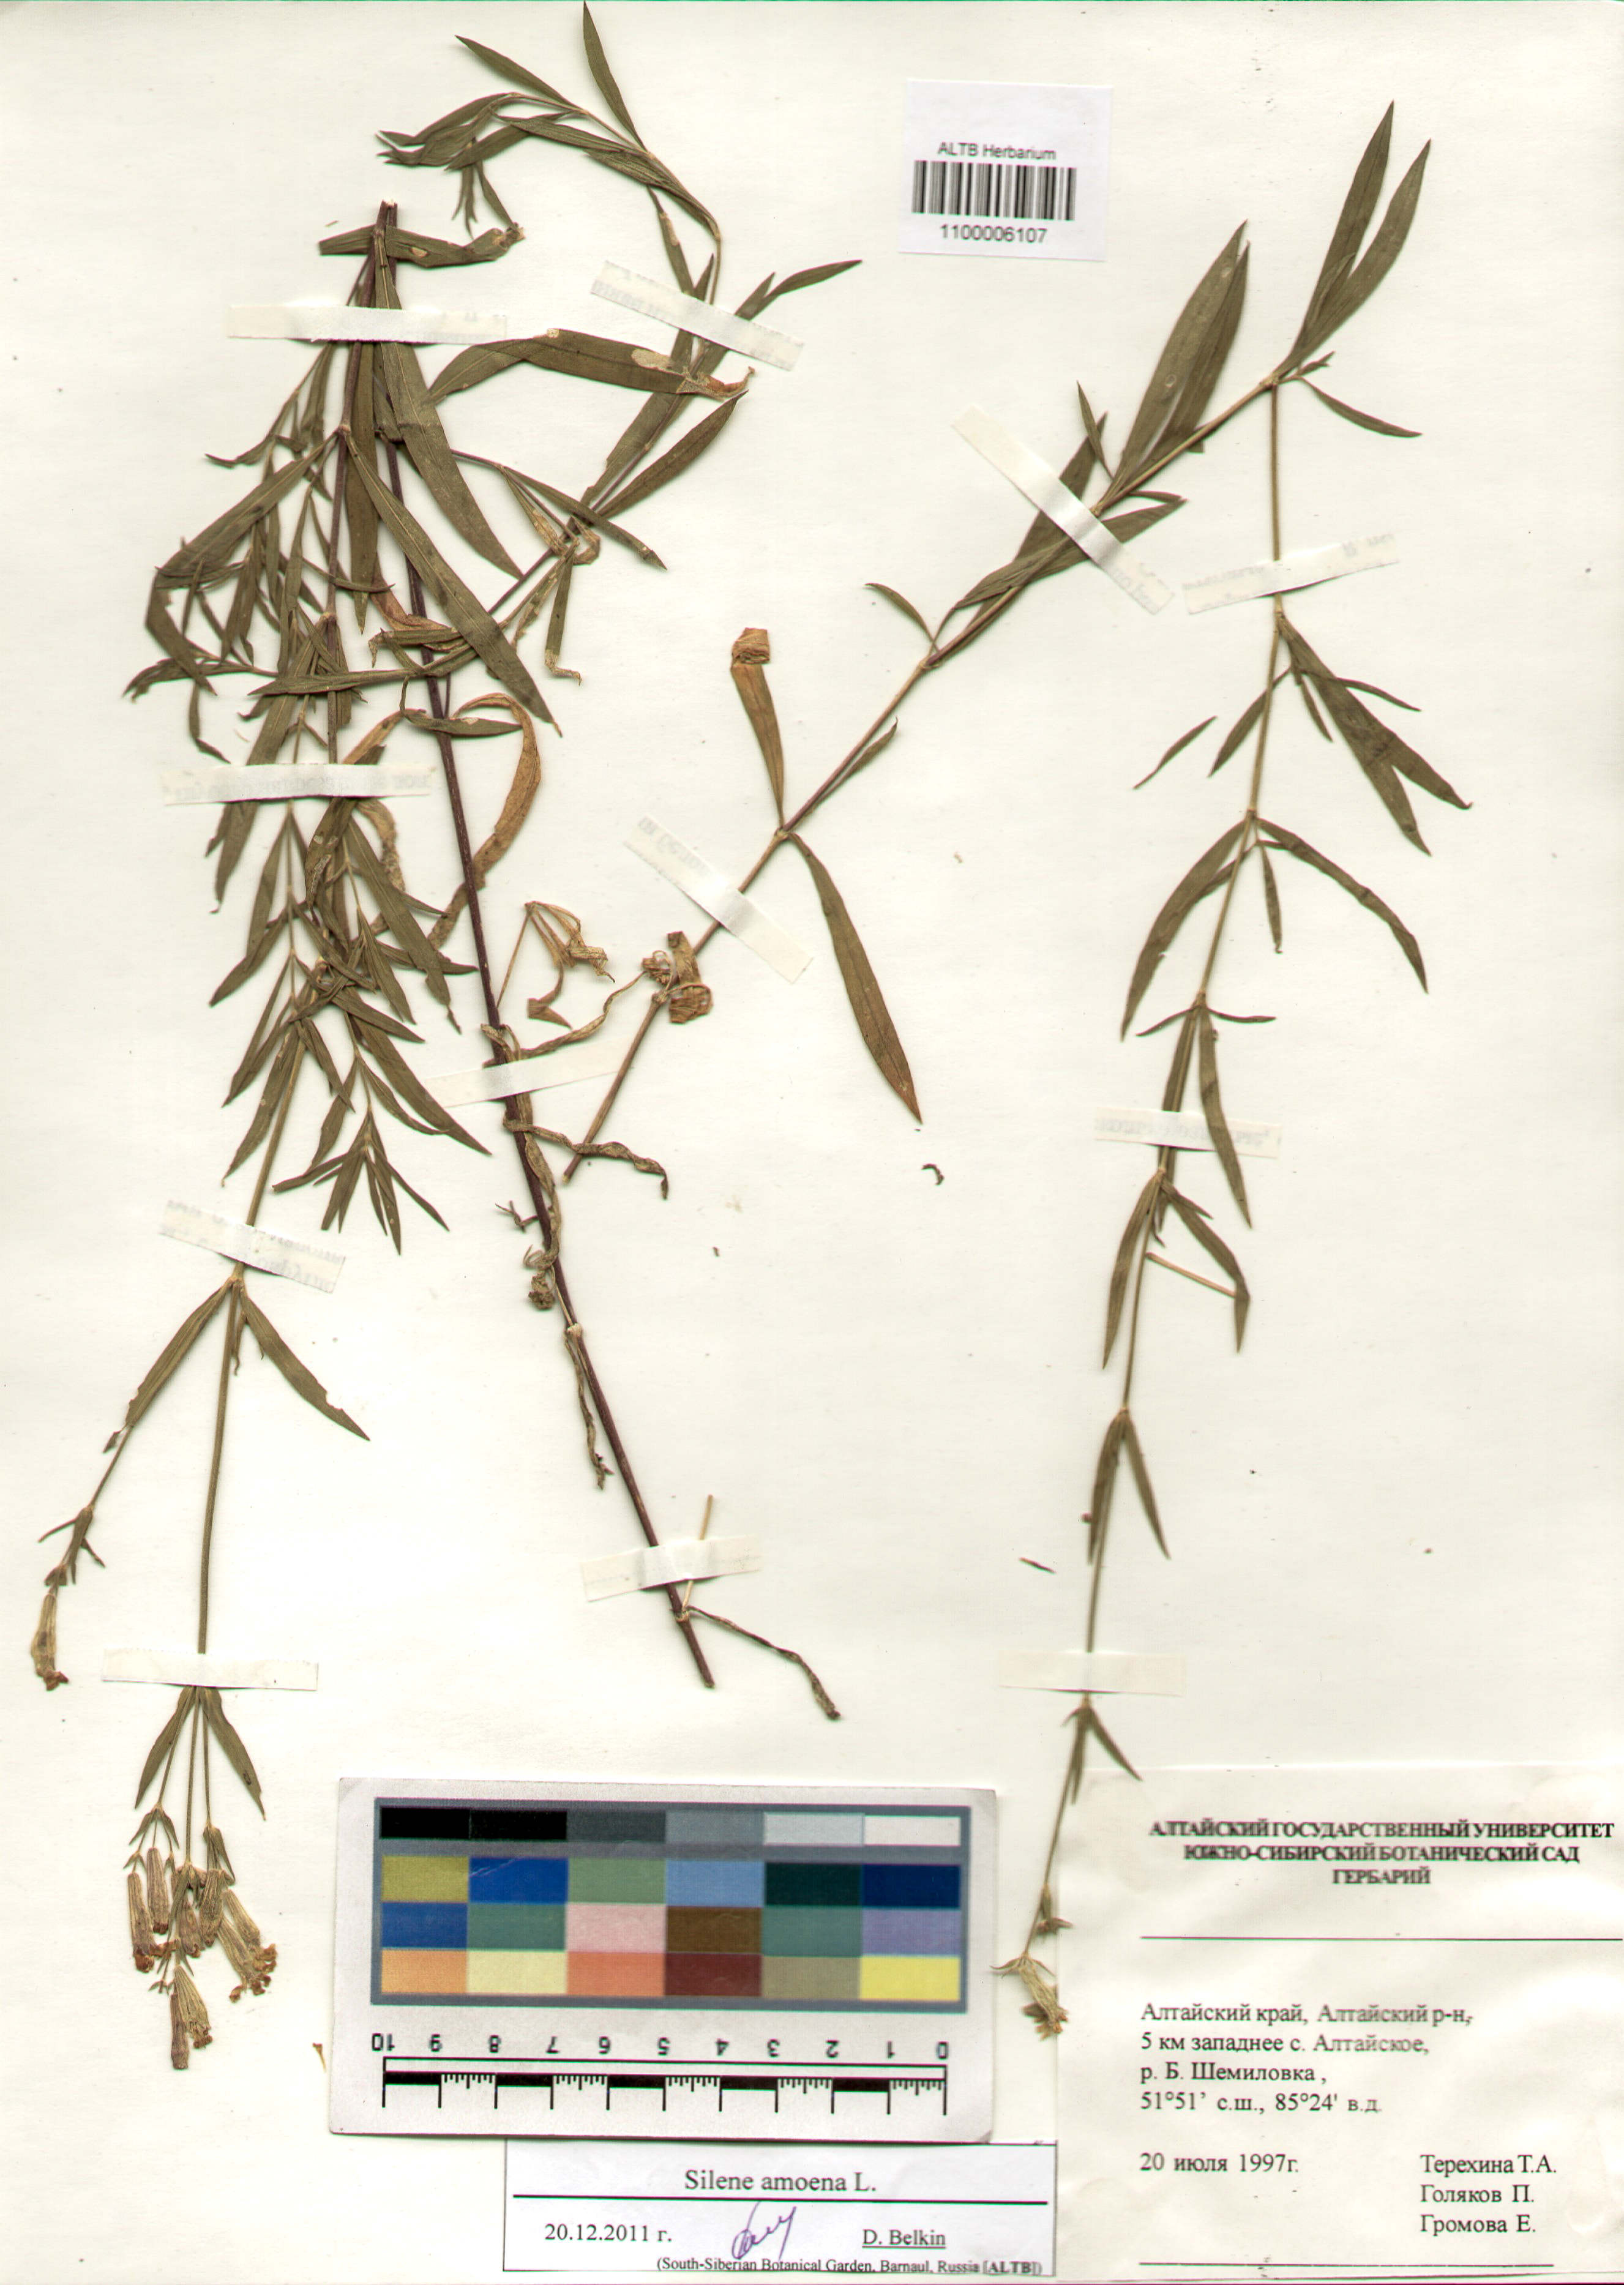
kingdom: Plantae
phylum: Tracheophyta
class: Magnoliopsida
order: Caryophyllales
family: Caryophyllaceae
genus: Silene
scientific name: Silene amoena
